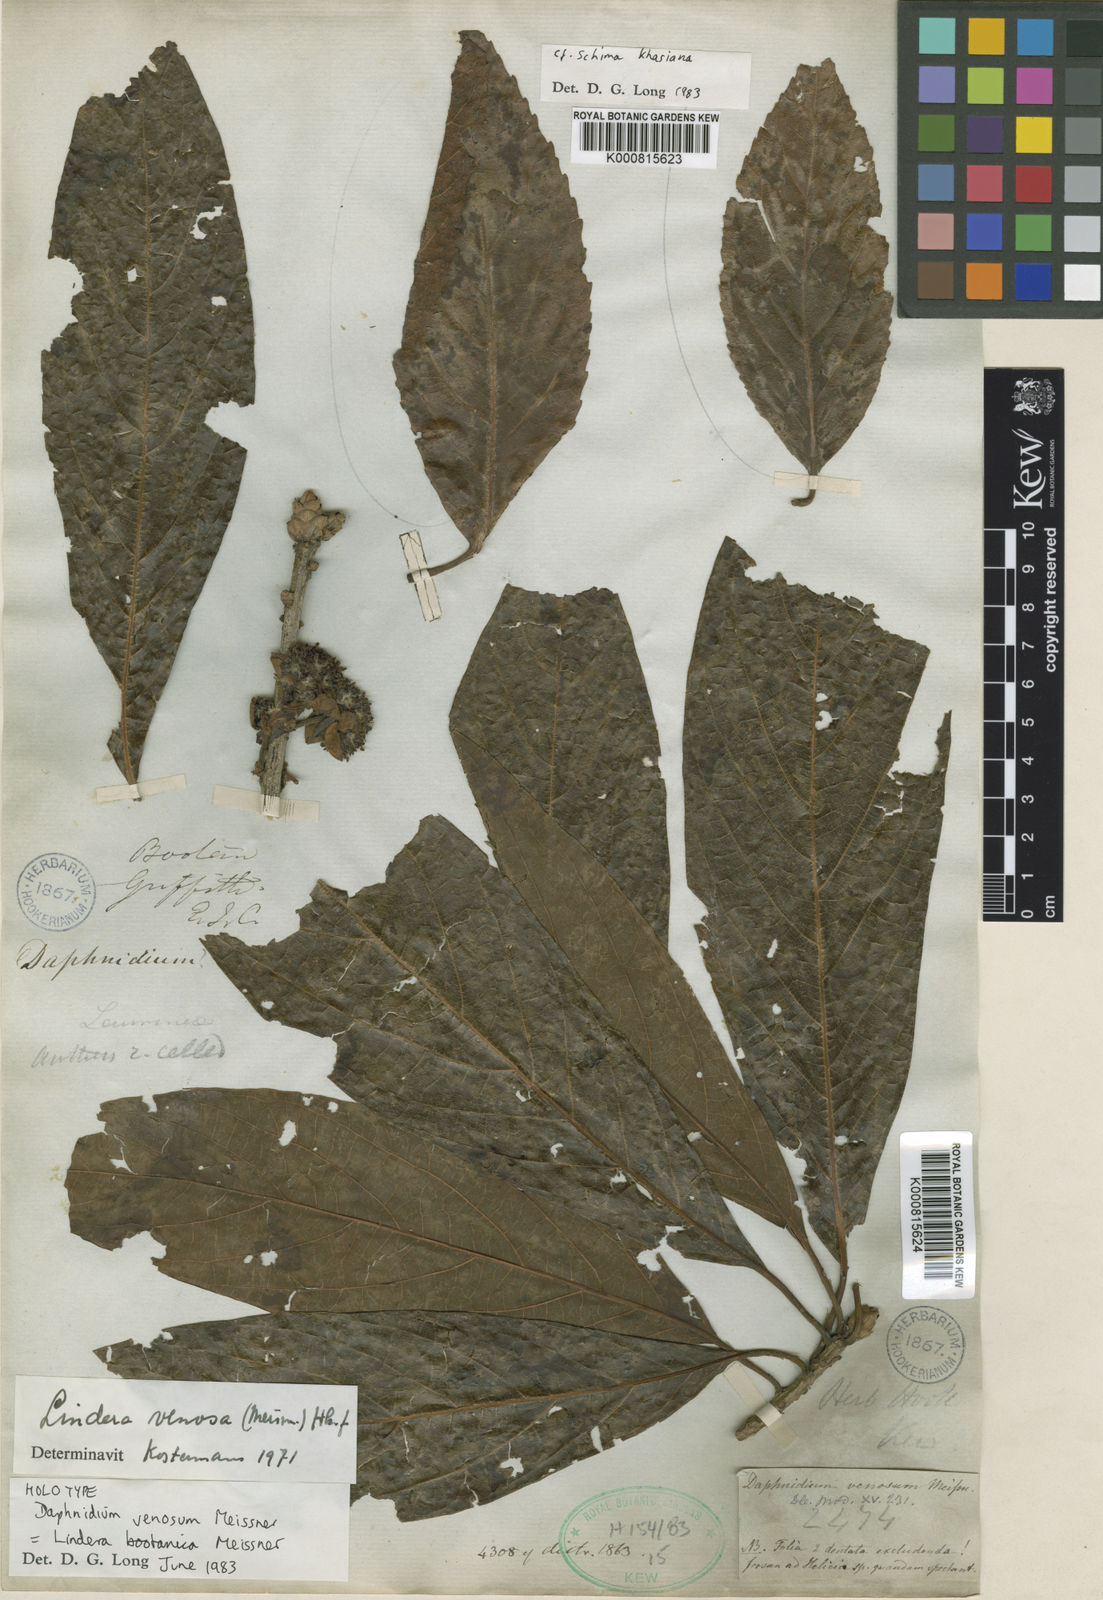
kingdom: Plantae
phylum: Tracheophyta
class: Magnoliopsida
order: Laurales
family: Lauraceae
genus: Lindera
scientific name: Lindera bootanica
